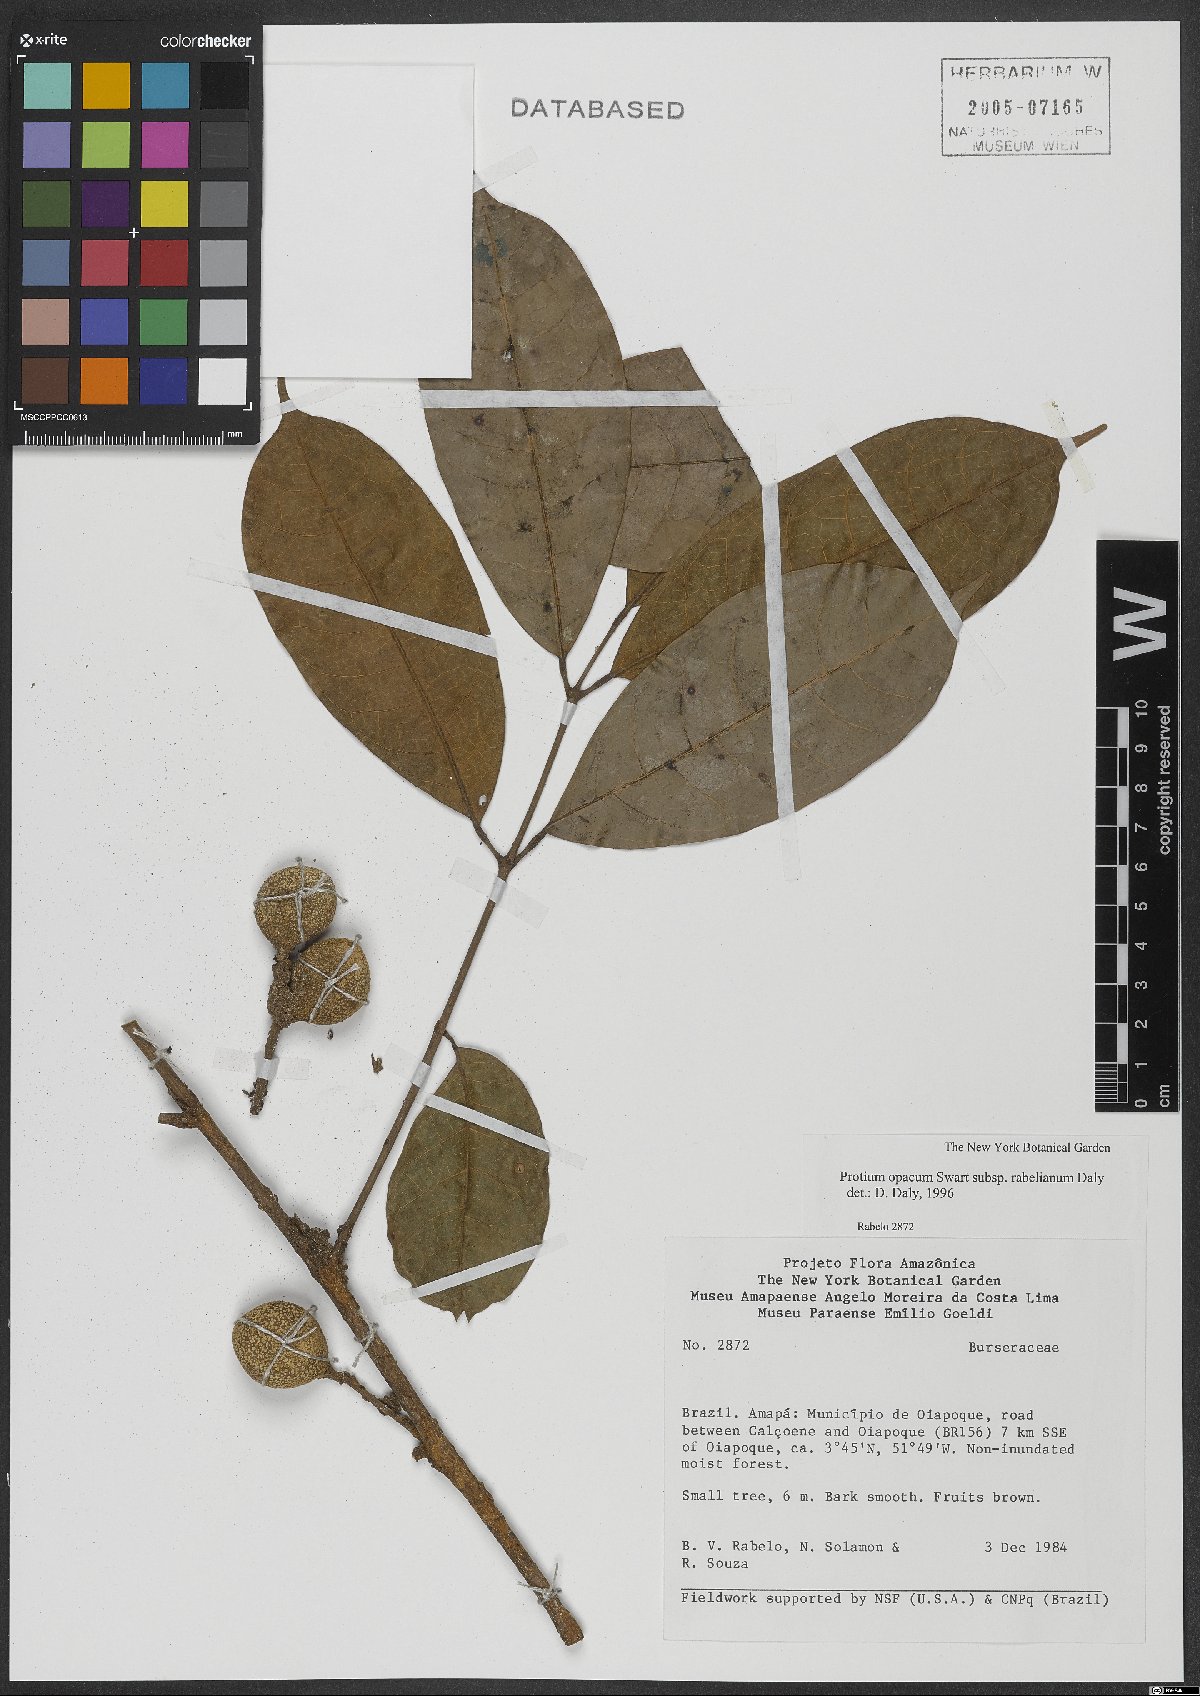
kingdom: Plantae
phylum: Tracheophyta
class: Magnoliopsida
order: Sapindales
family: Burseraceae
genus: Protium
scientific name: Protium opacum
